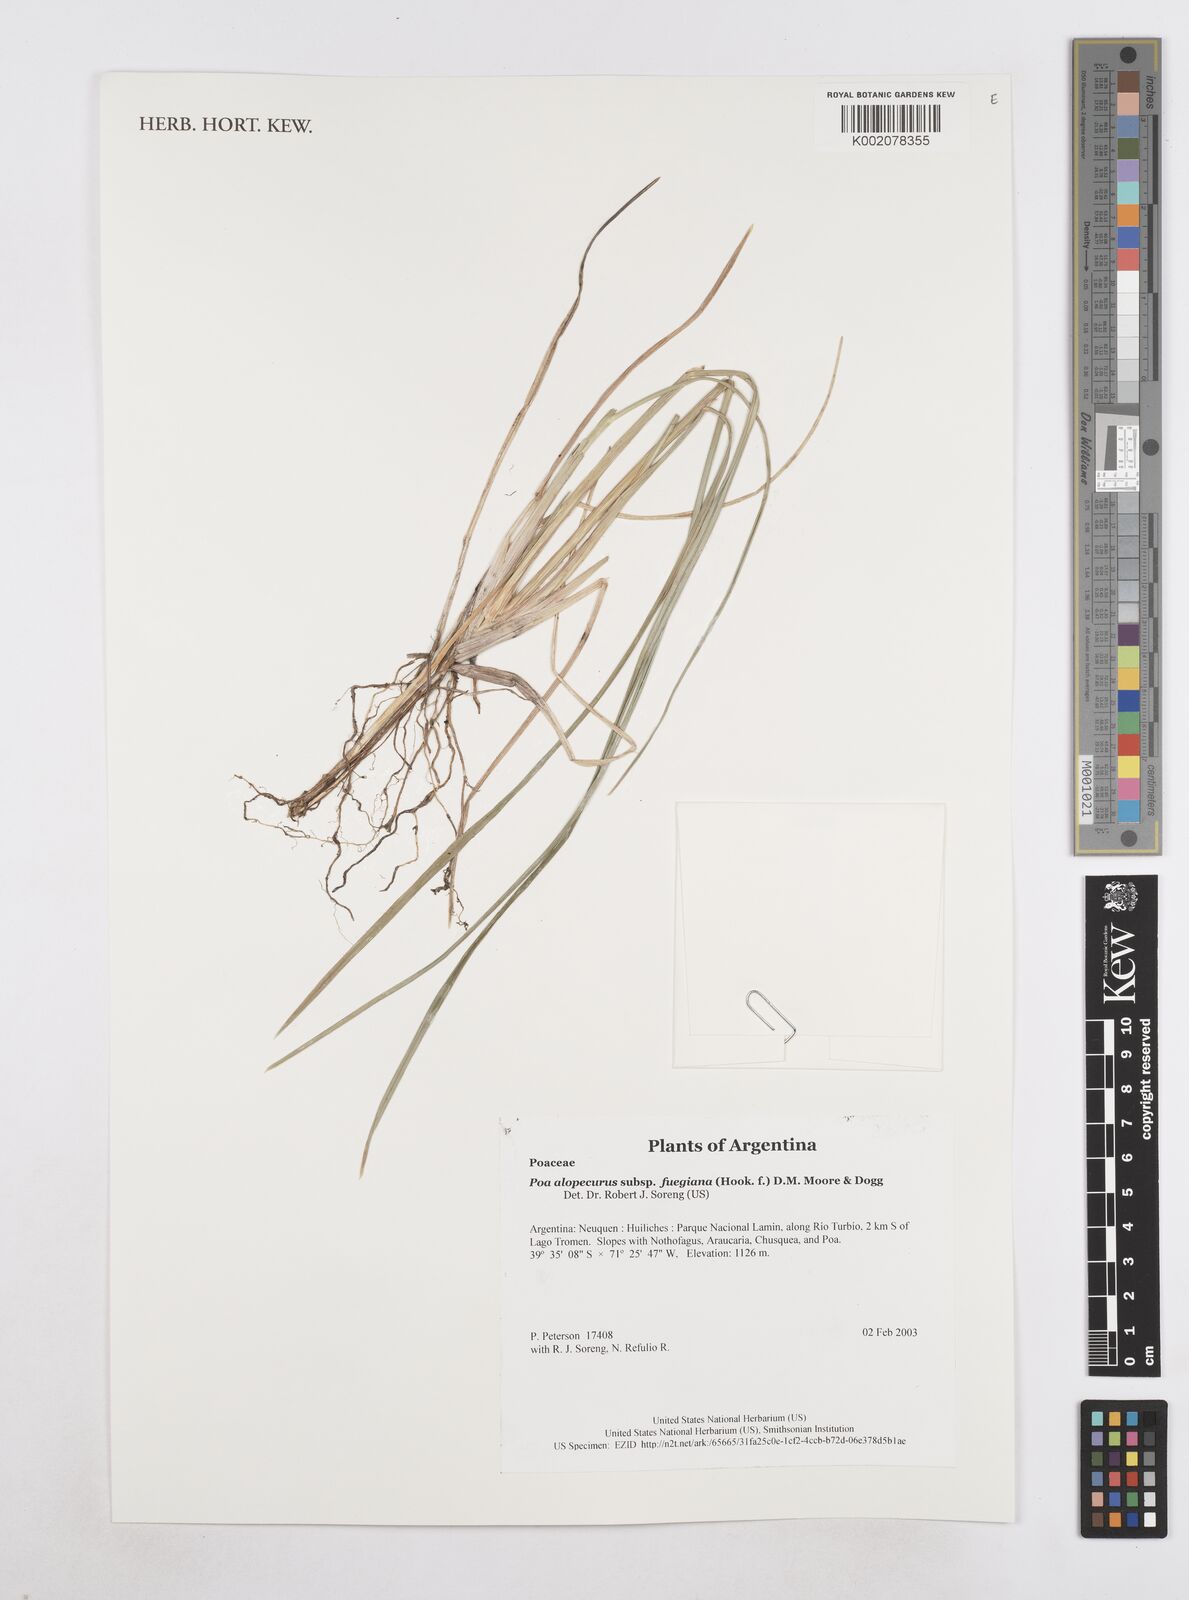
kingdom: Plantae
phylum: Tracheophyta
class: Liliopsida
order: Poales
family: Poaceae
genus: Poa
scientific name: Poa alopecurus
